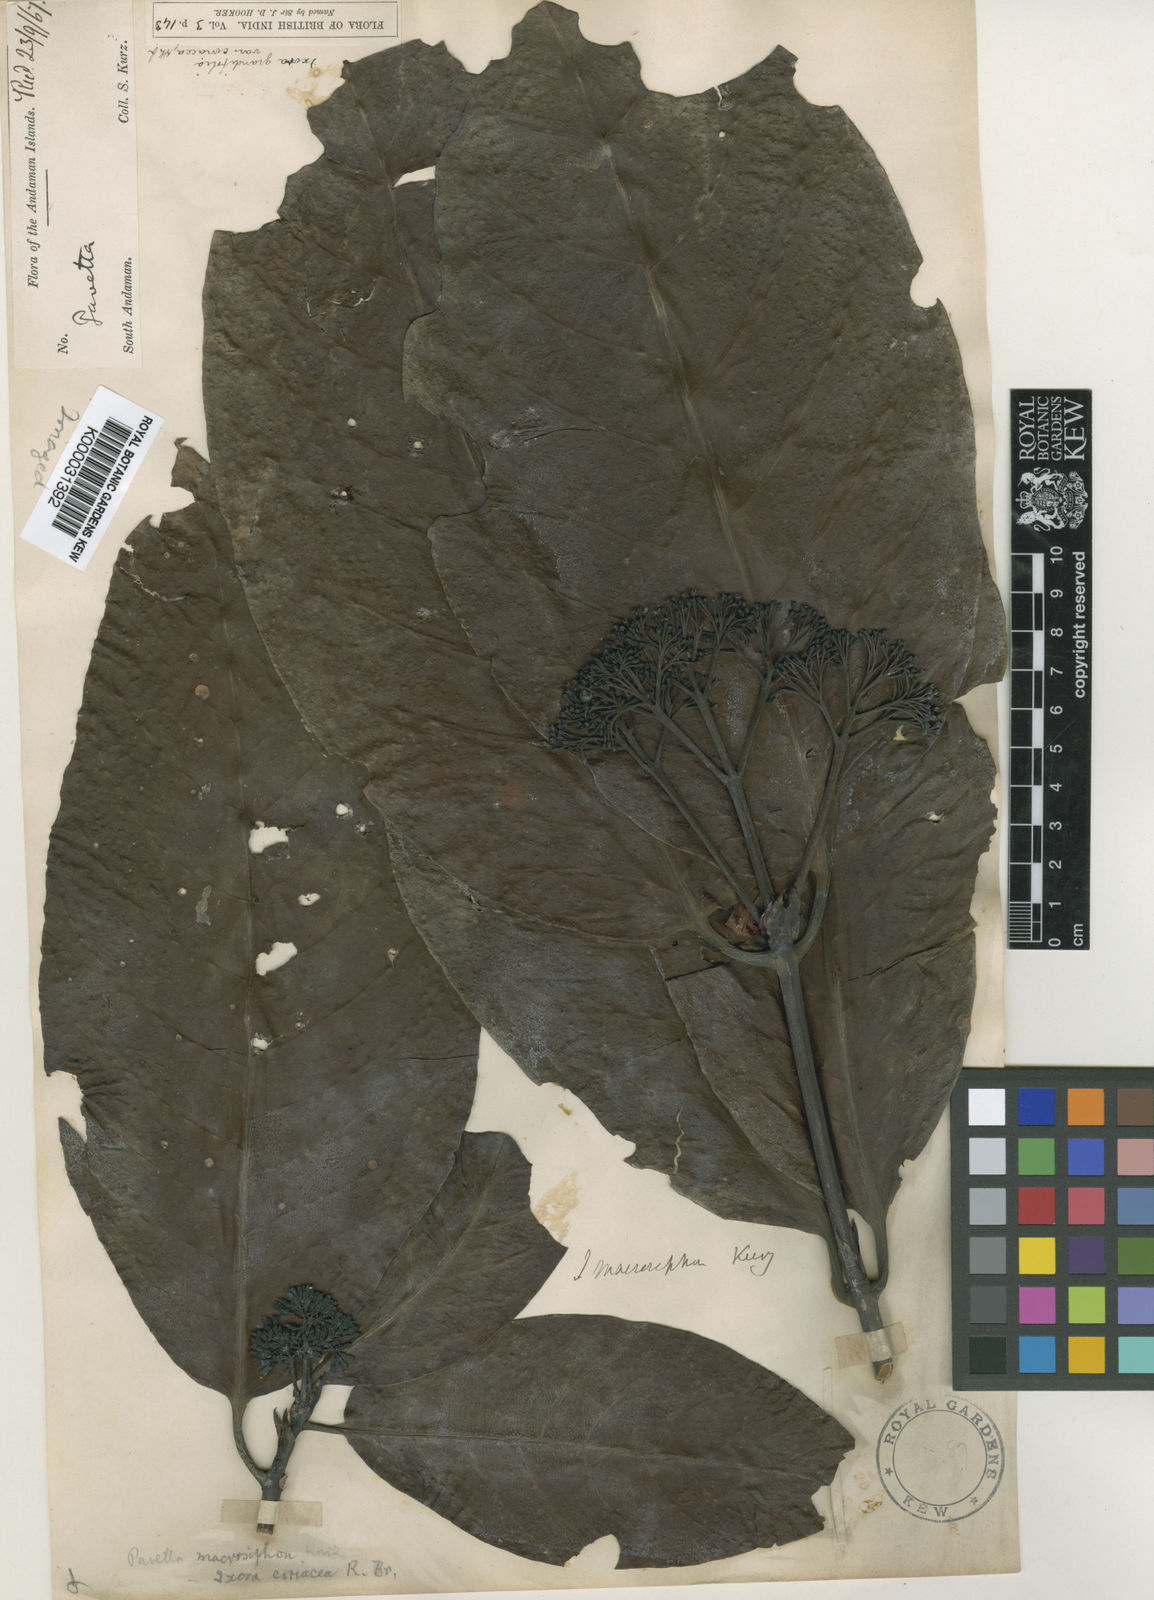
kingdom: Plantae
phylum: Tracheophyta
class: Magnoliopsida
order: Gentianales
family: Rubiaceae
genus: Ixora
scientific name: Ixora macrosiphon
